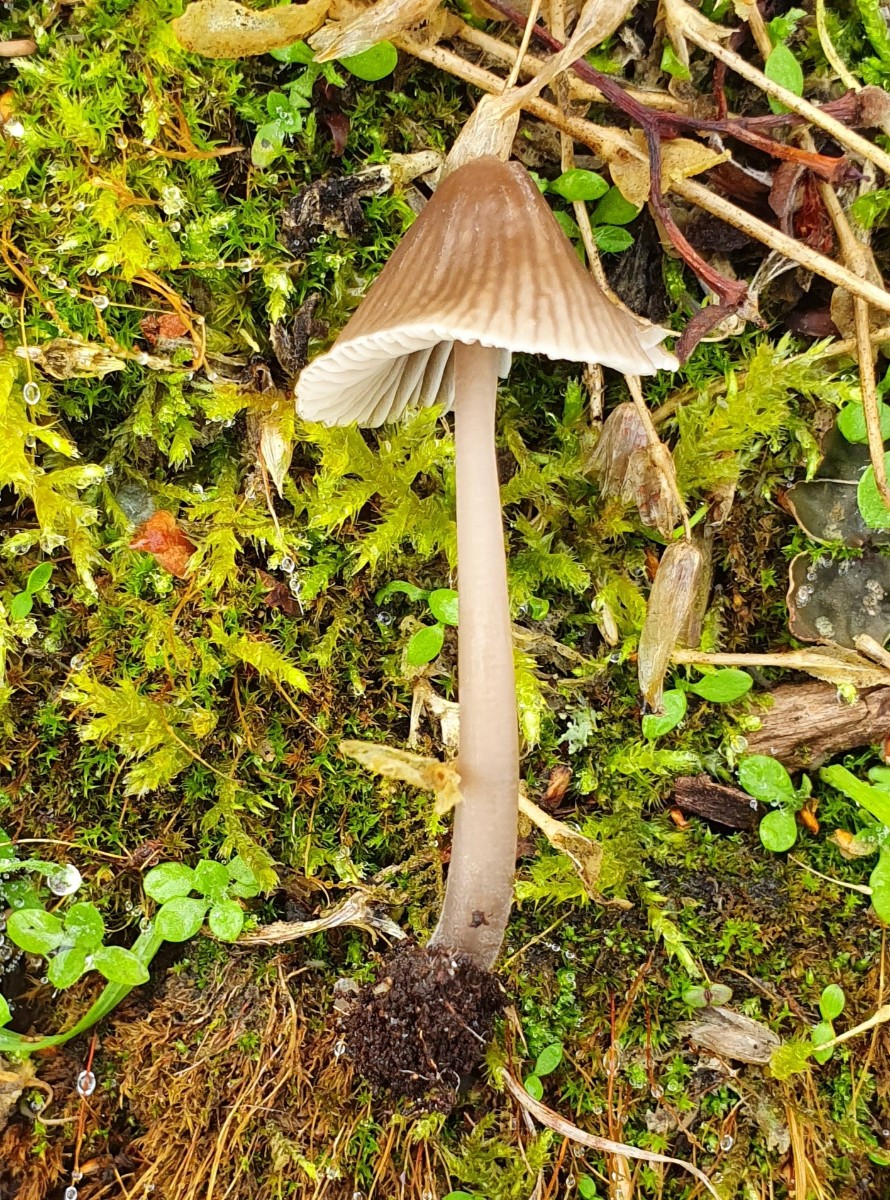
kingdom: Fungi
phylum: Basidiomycota
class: Agaricomycetes
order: Agaricales
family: Mycenaceae
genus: Mycena
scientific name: Mycena leptocephala
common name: klor-huesvamp
